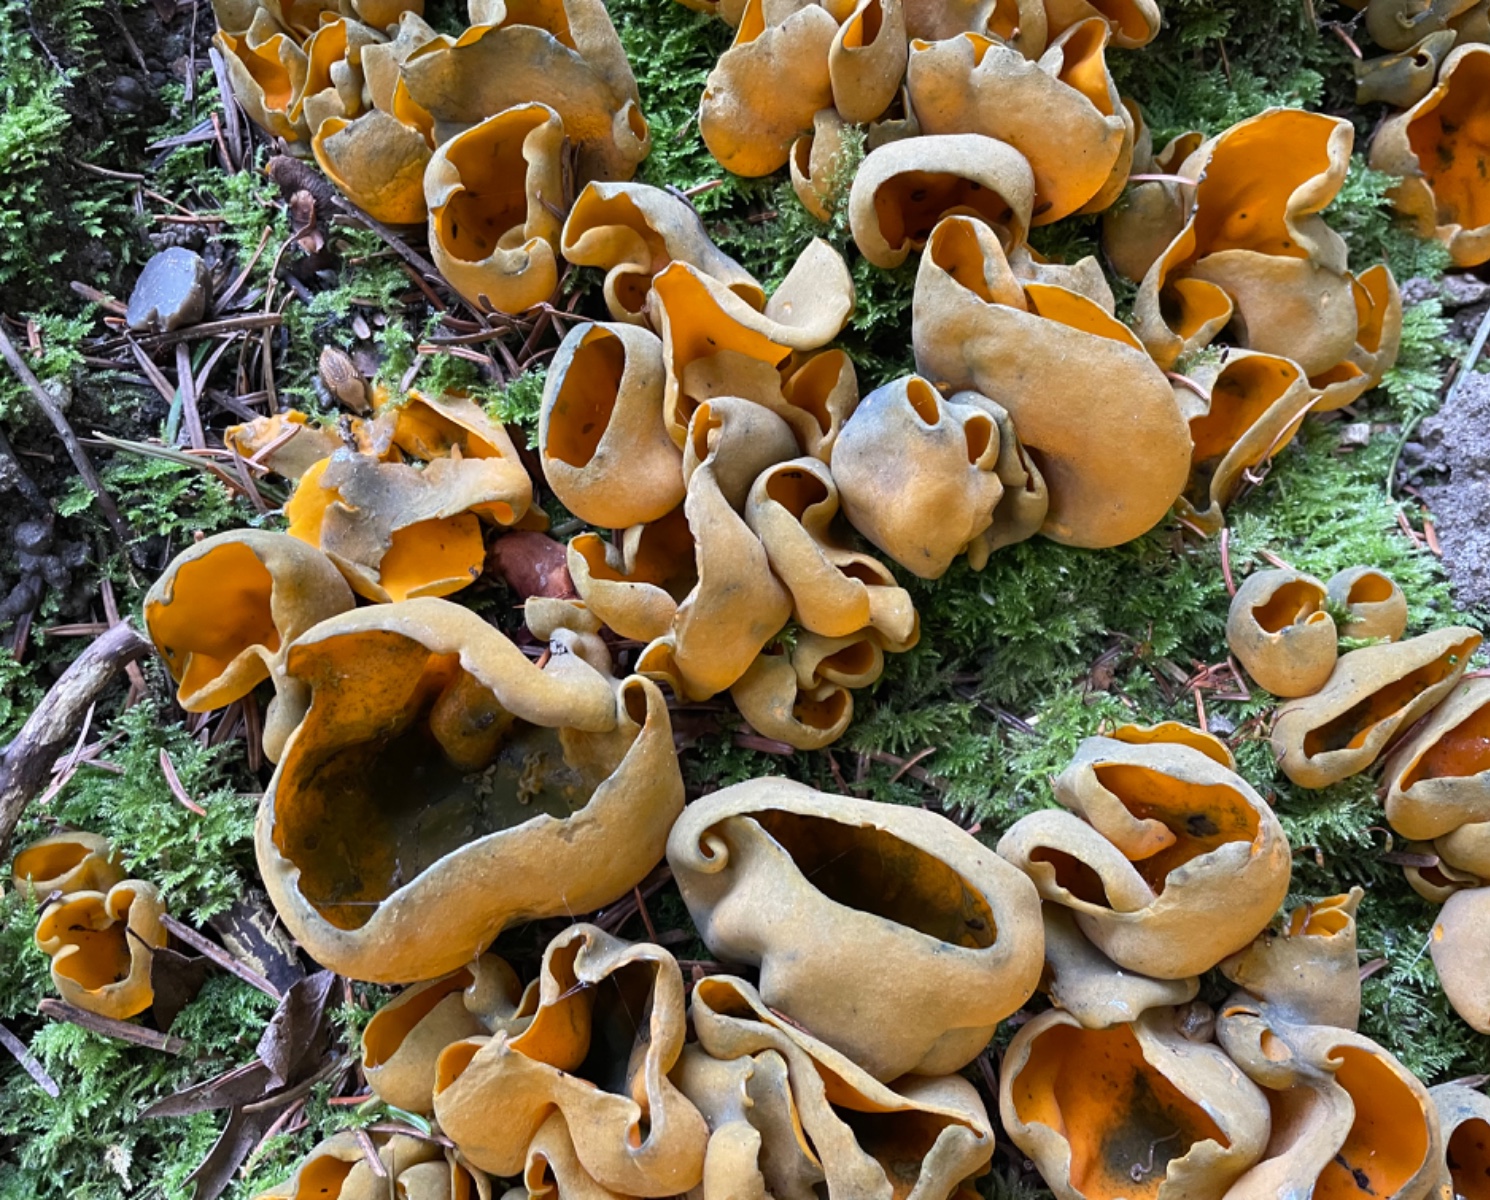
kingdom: Fungi
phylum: Ascomycota
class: Pezizomycetes
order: Pezizales
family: Caloscyphaceae
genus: Caloscypha
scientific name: Caloscypha fulgens
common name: jadebæger
